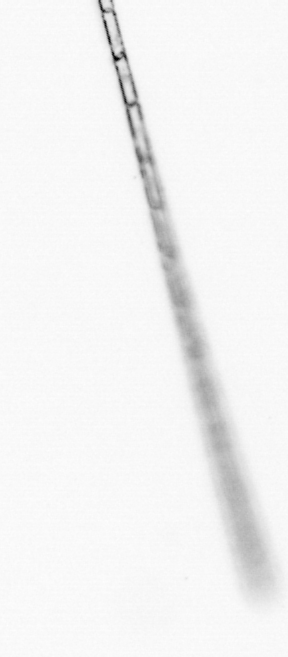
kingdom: Chromista
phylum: Ochrophyta
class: Bacillariophyceae
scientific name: Bacillariophyceae
